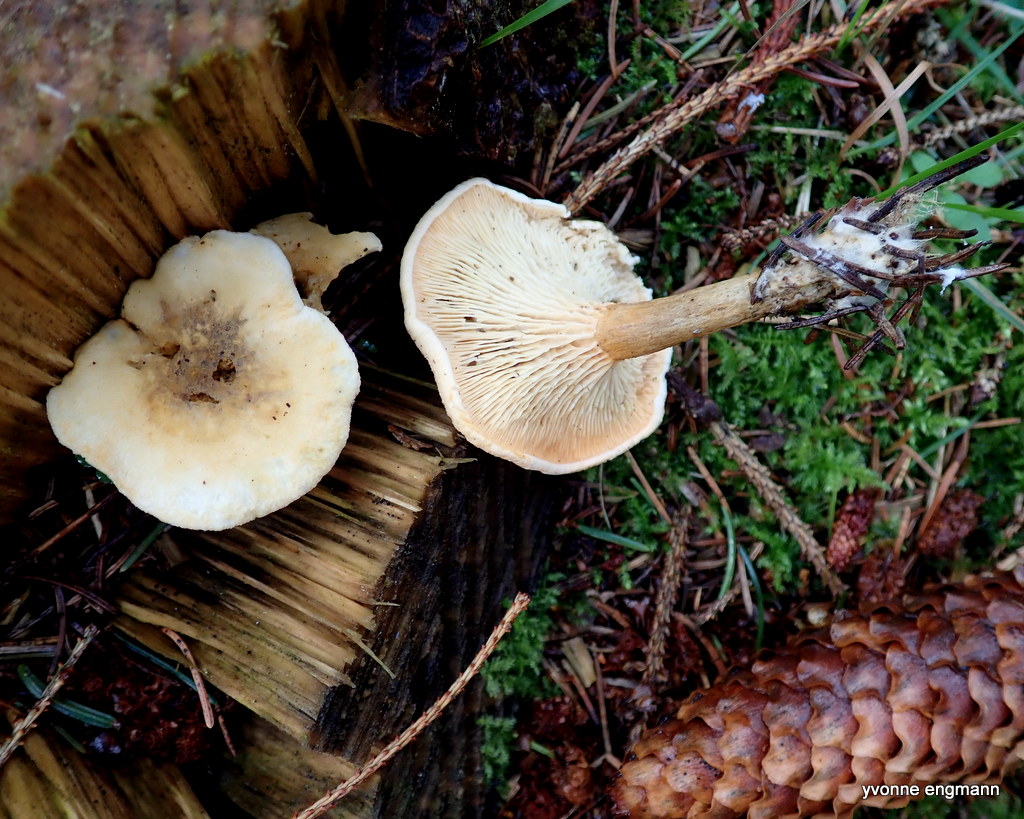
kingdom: Fungi
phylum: Basidiomycota
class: Agaricomycetes
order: Boletales
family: Hygrophoropsidaceae
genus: Hygrophoropsis
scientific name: Hygrophoropsis pallida
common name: bleg orangekantarel
